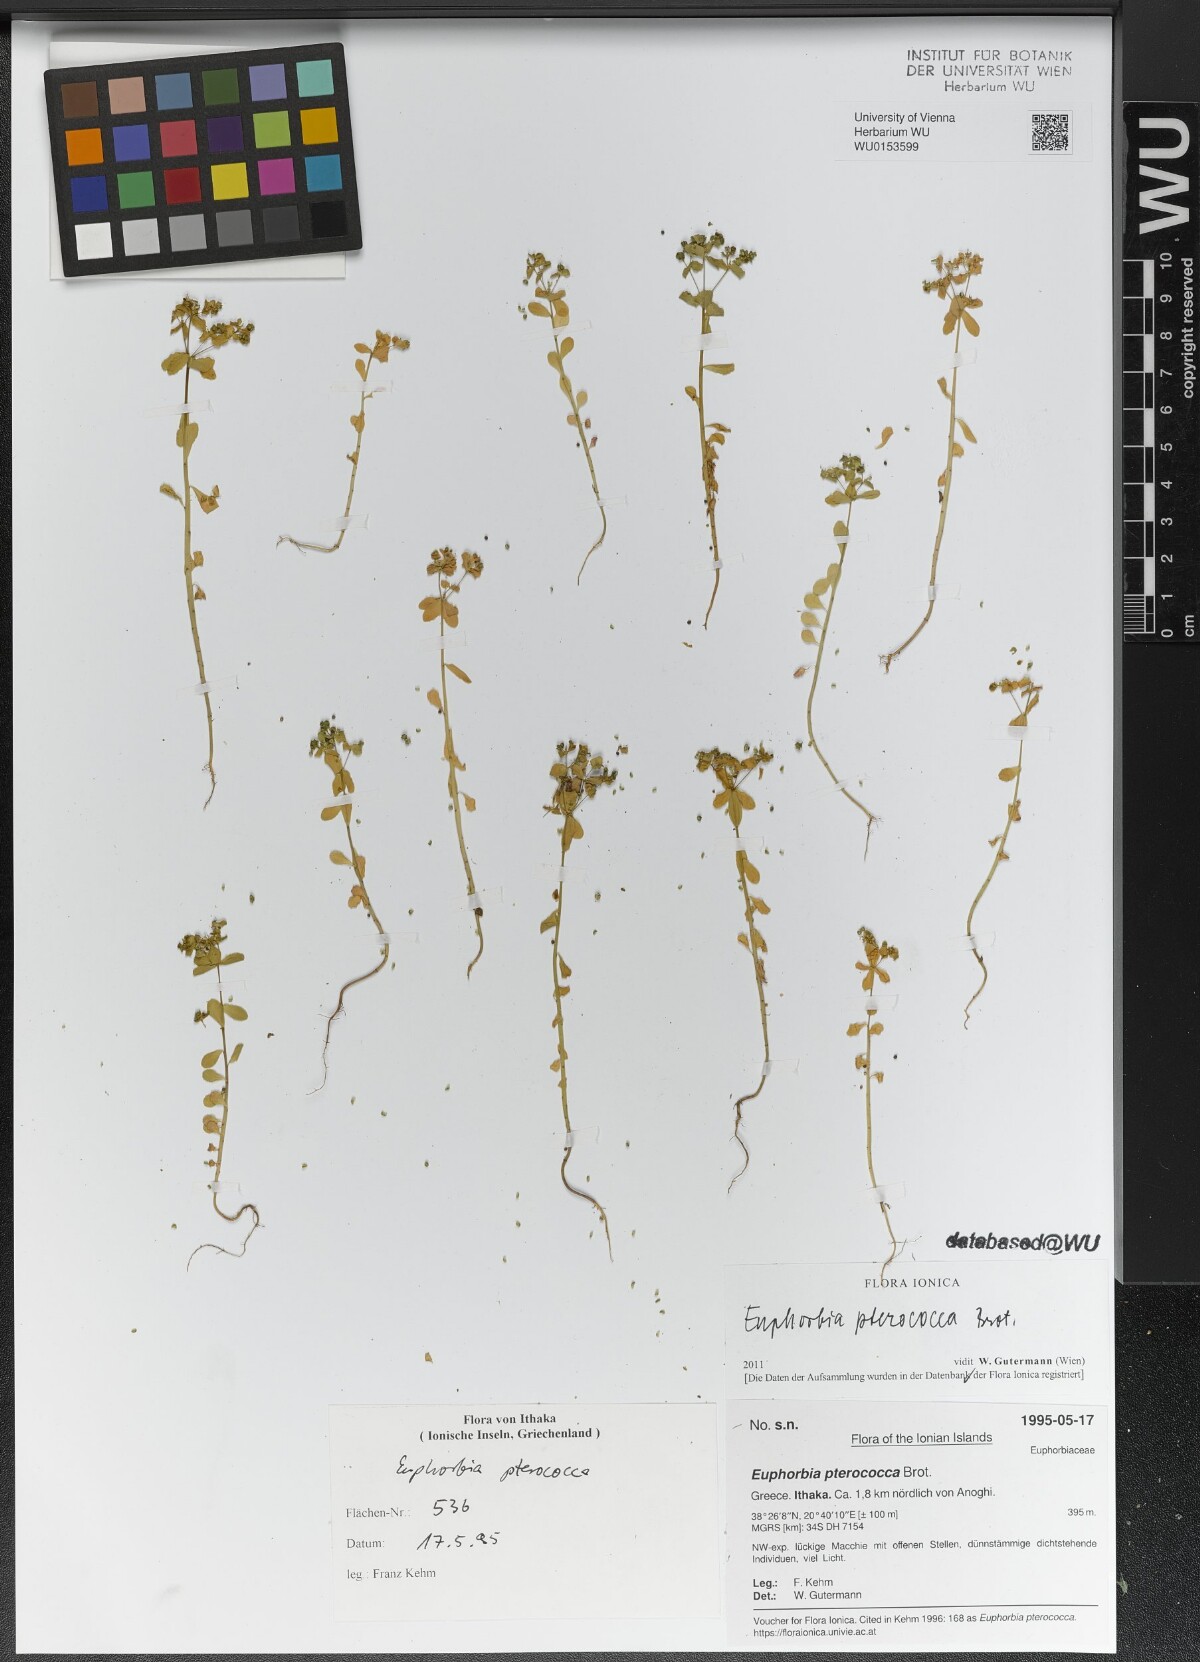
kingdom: Plantae
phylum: Tracheophyta
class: Magnoliopsida
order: Malpighiales
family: Euphorbiaceae
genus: Euphorbia
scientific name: Euphorbia pterococca
